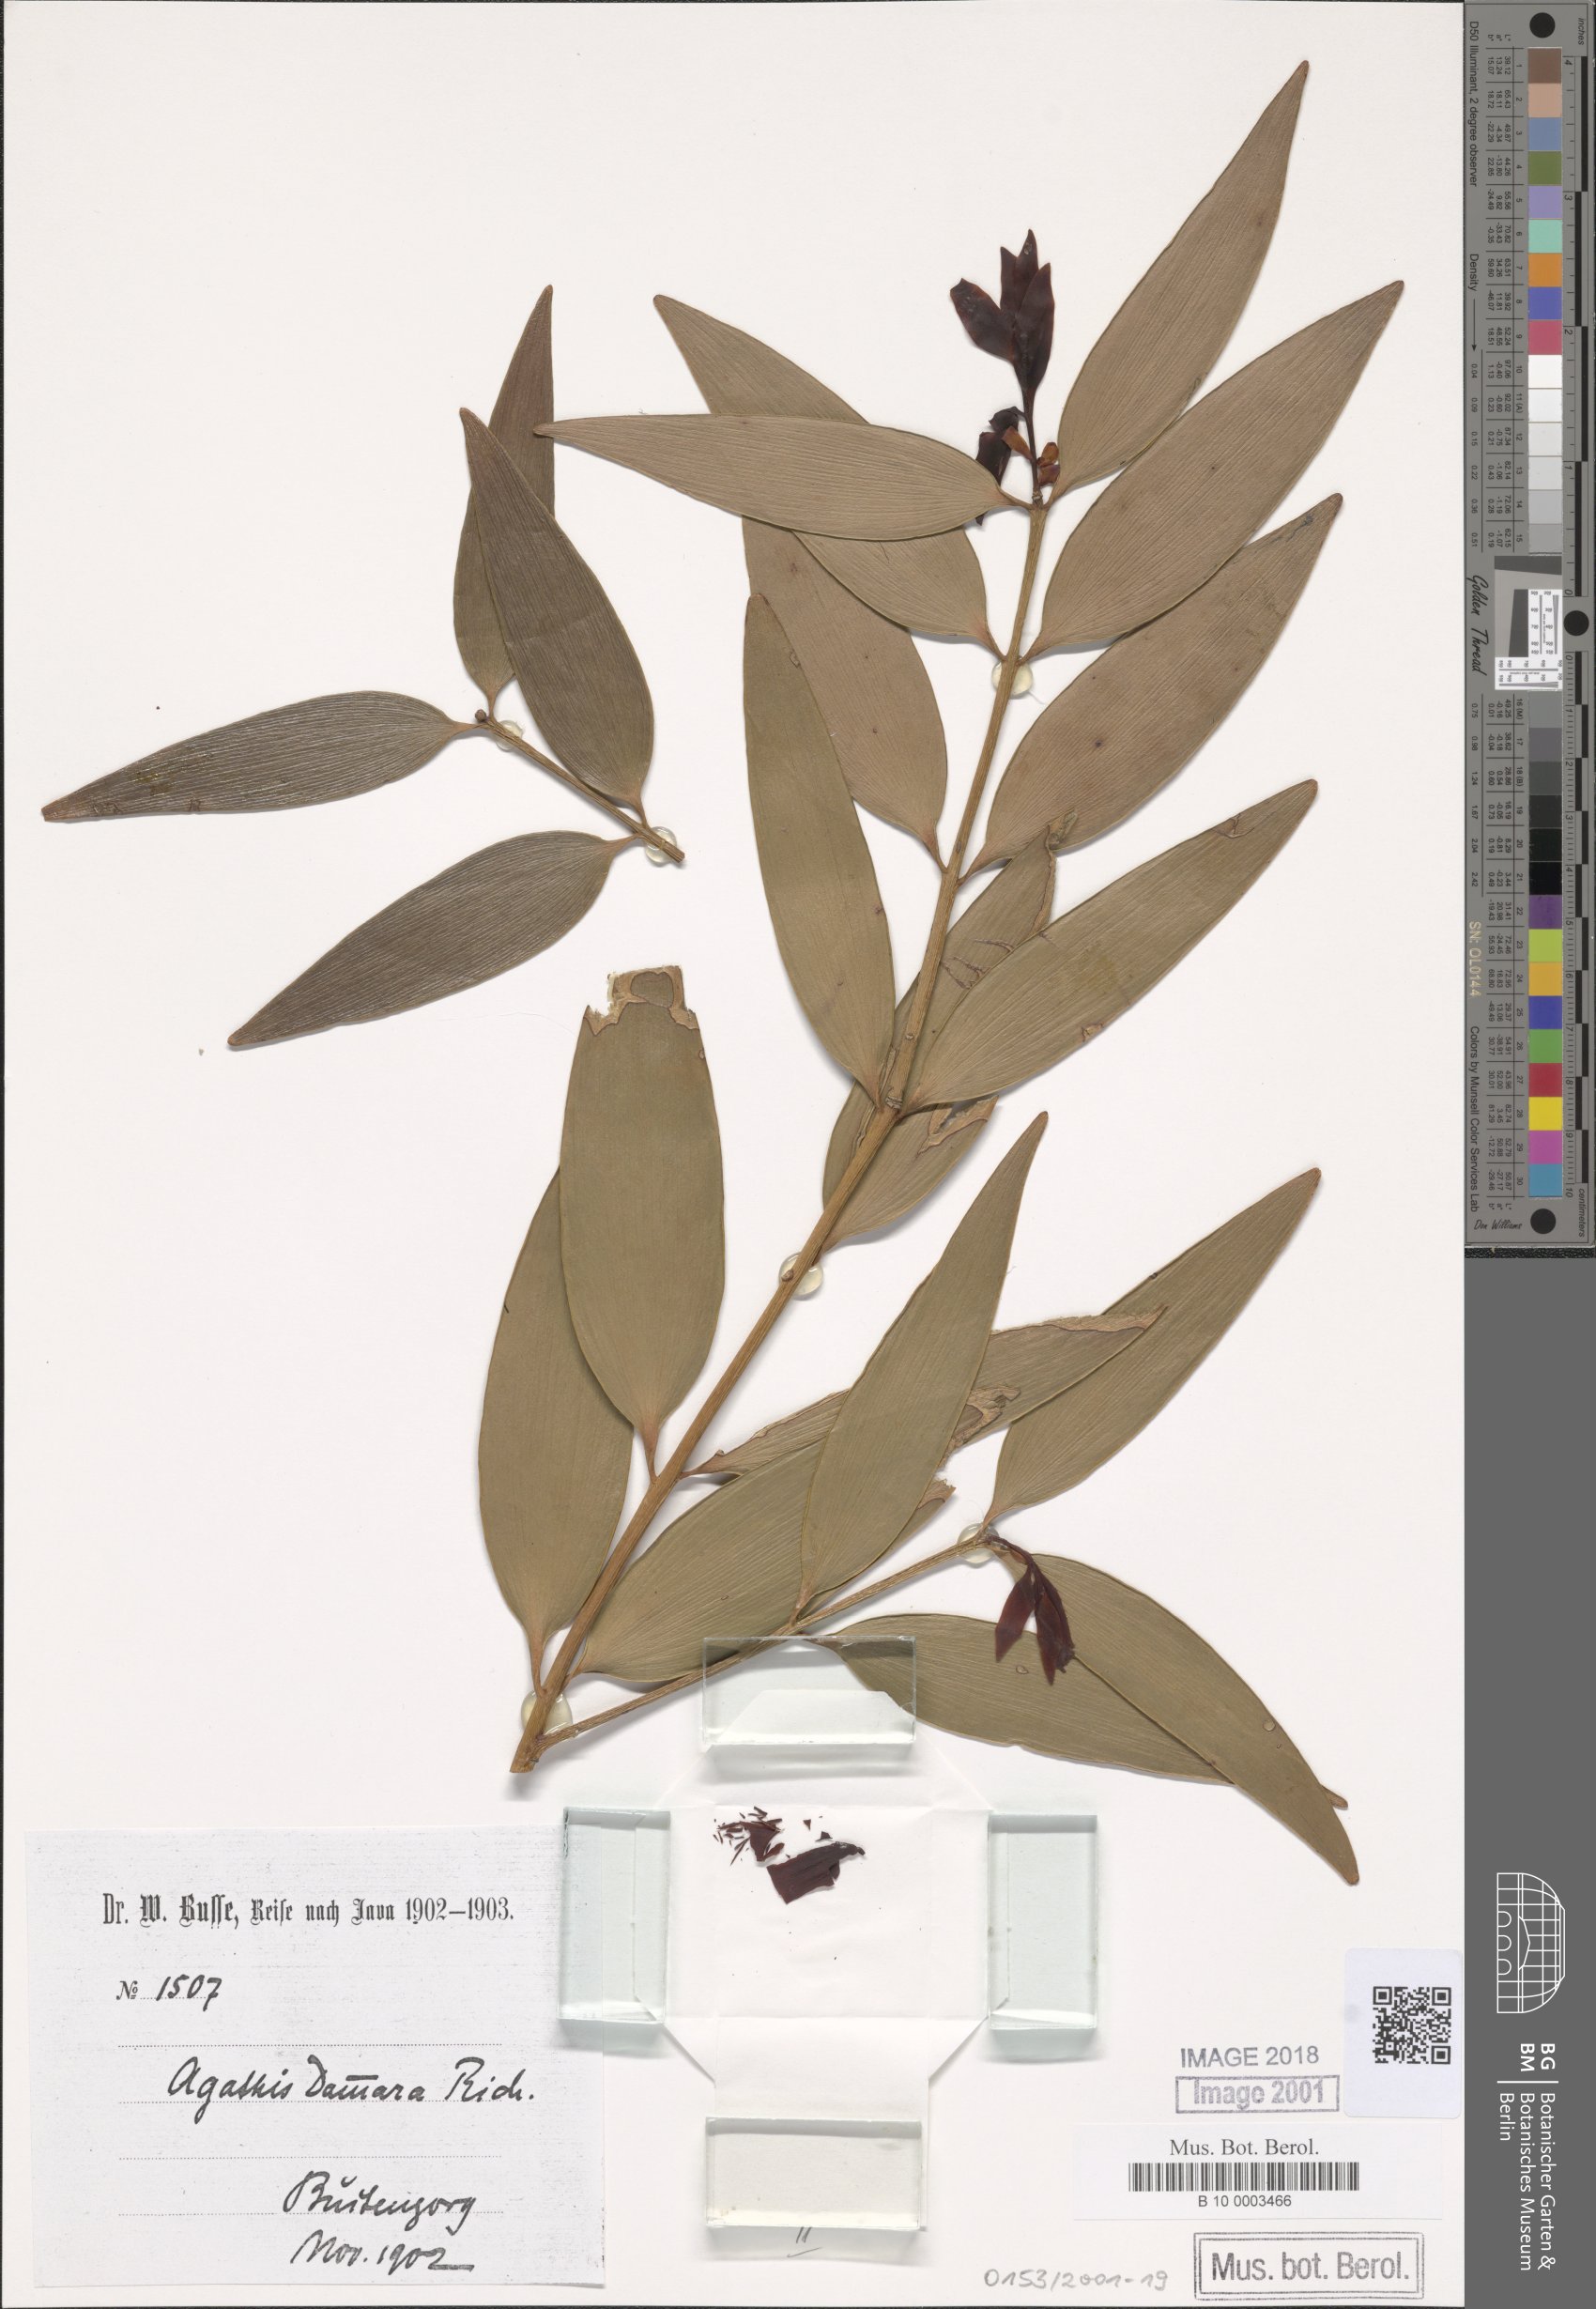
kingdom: Plantae
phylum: Tracheophyta
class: Pinopsida
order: Pinales
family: Araucariaceae
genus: Agathis
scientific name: Agathis dammara
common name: Amboina pitch tree
